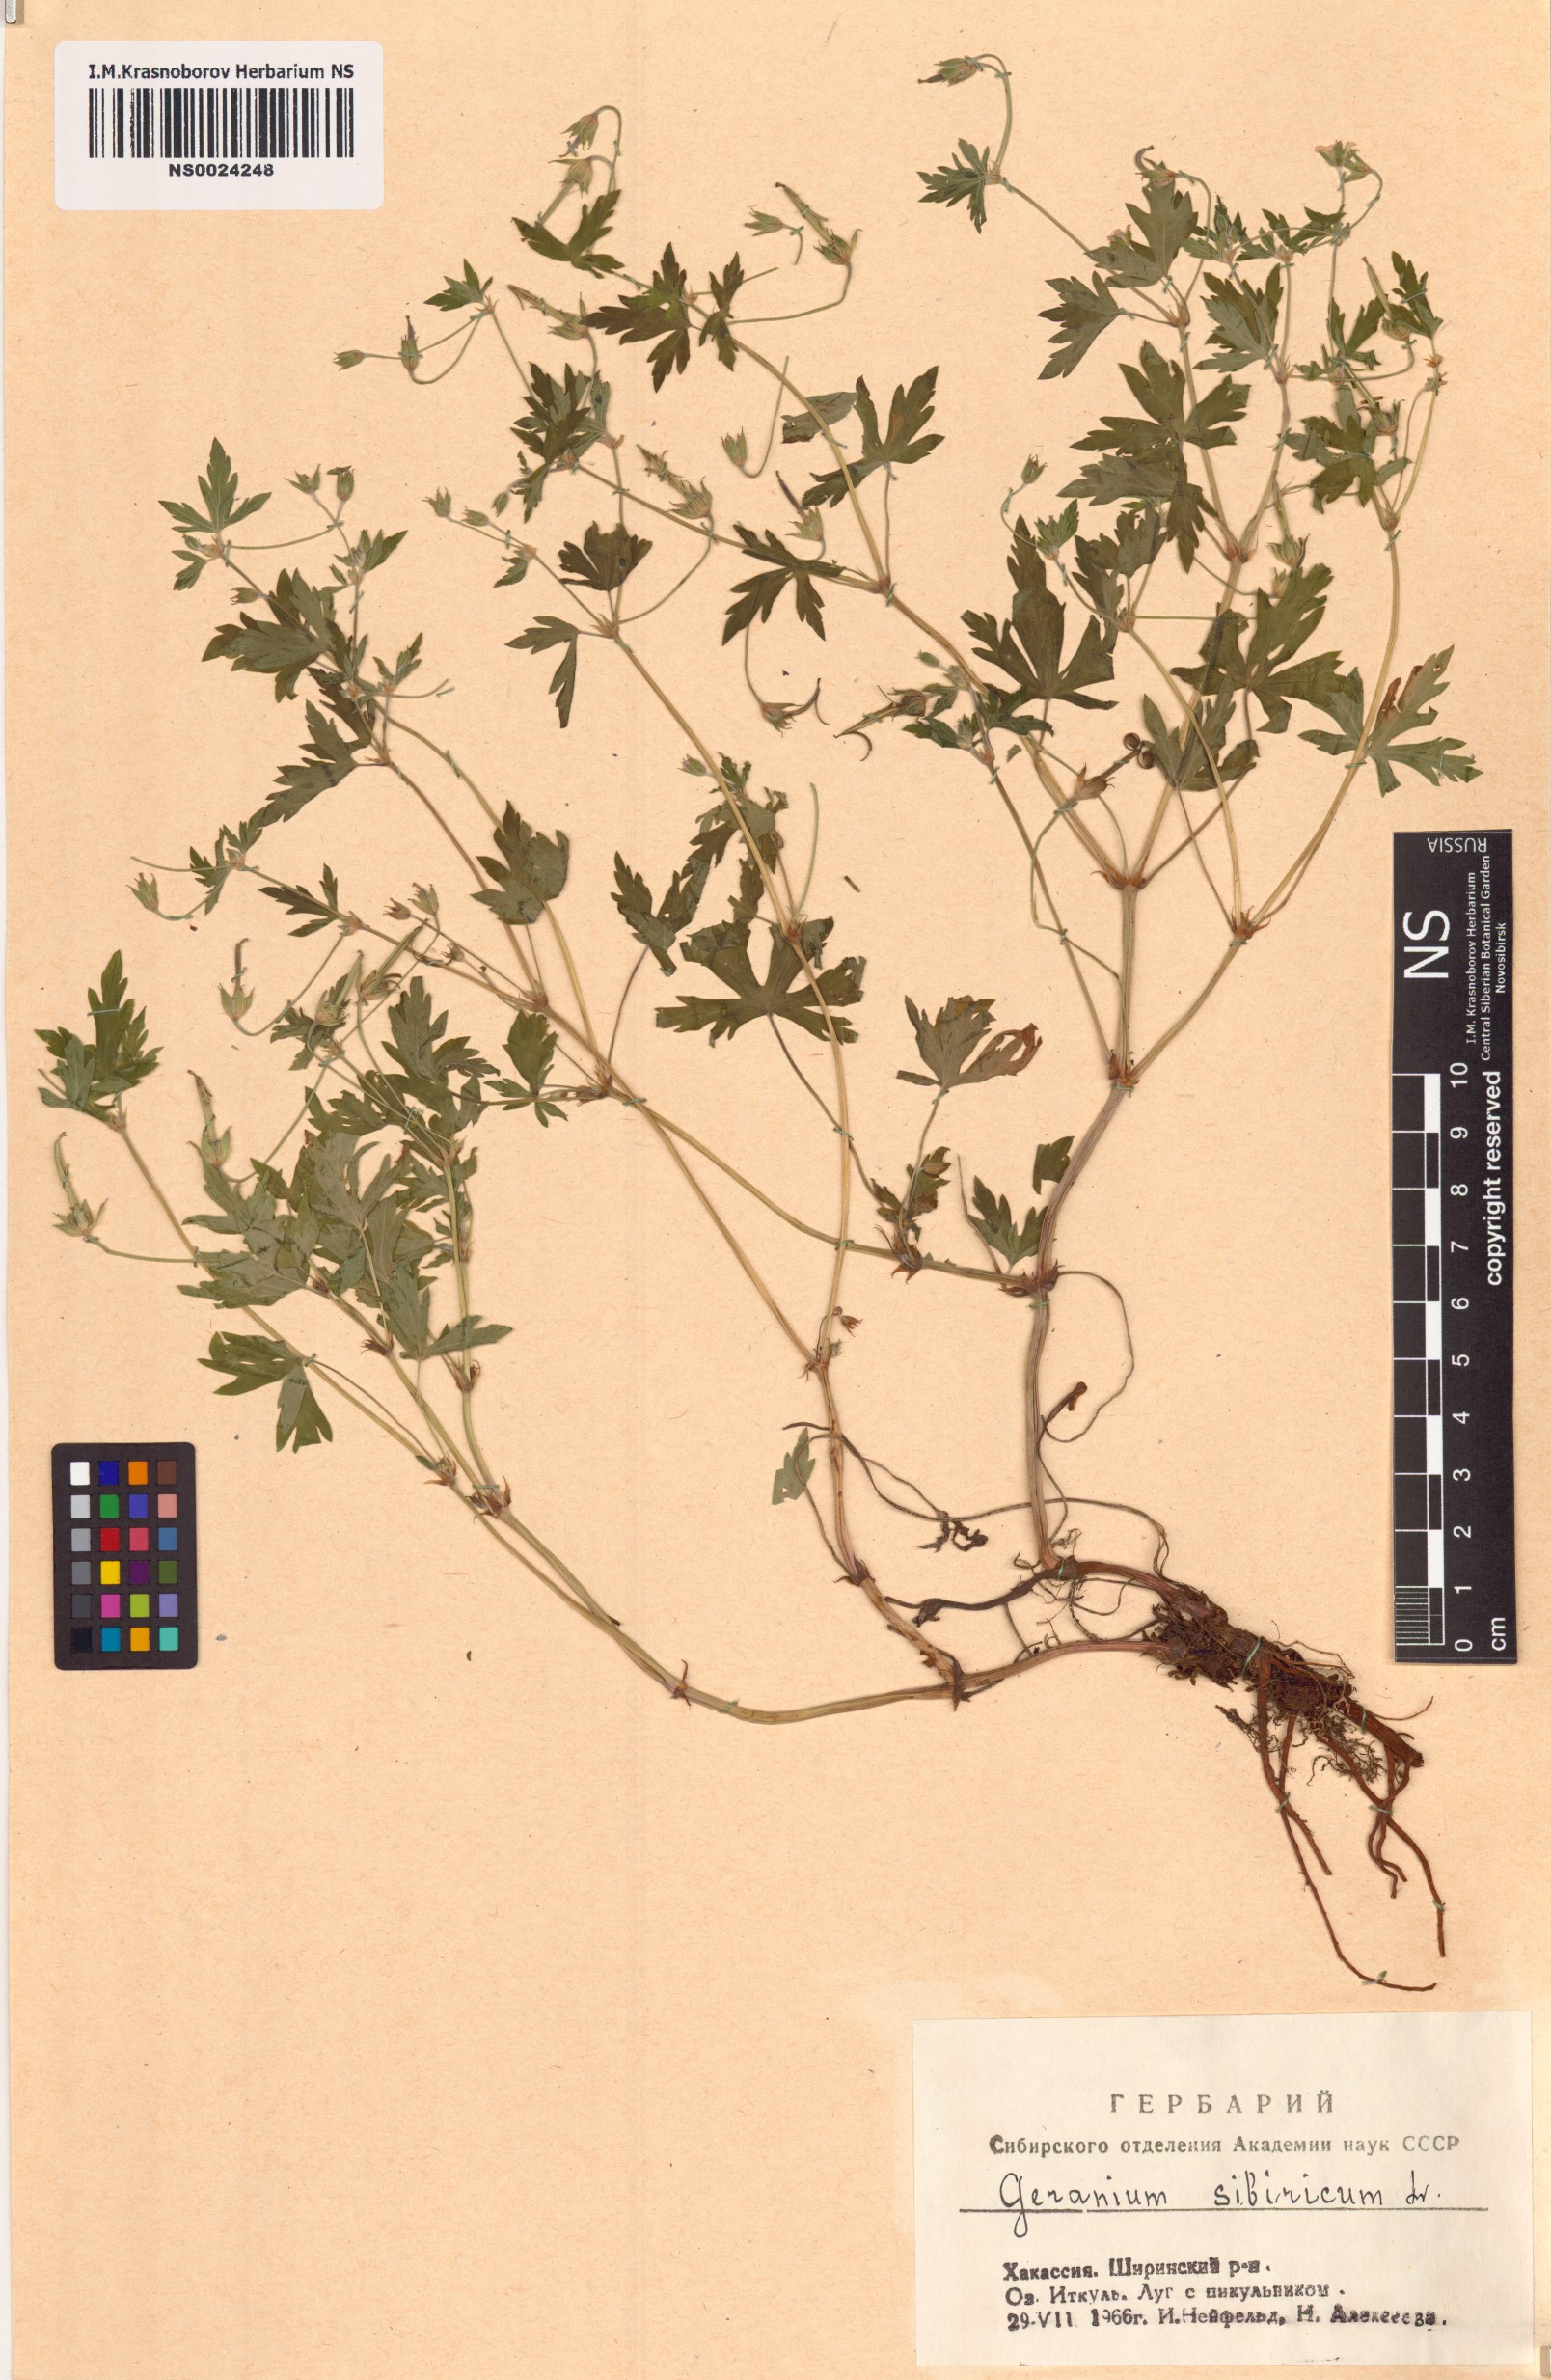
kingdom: Plantae
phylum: Tracheophyta
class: Magnoliopsida
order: Geraniales
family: Geraniaceae
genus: Geranium
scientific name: Geranium sibiricum
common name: Siberian crane's-bill
